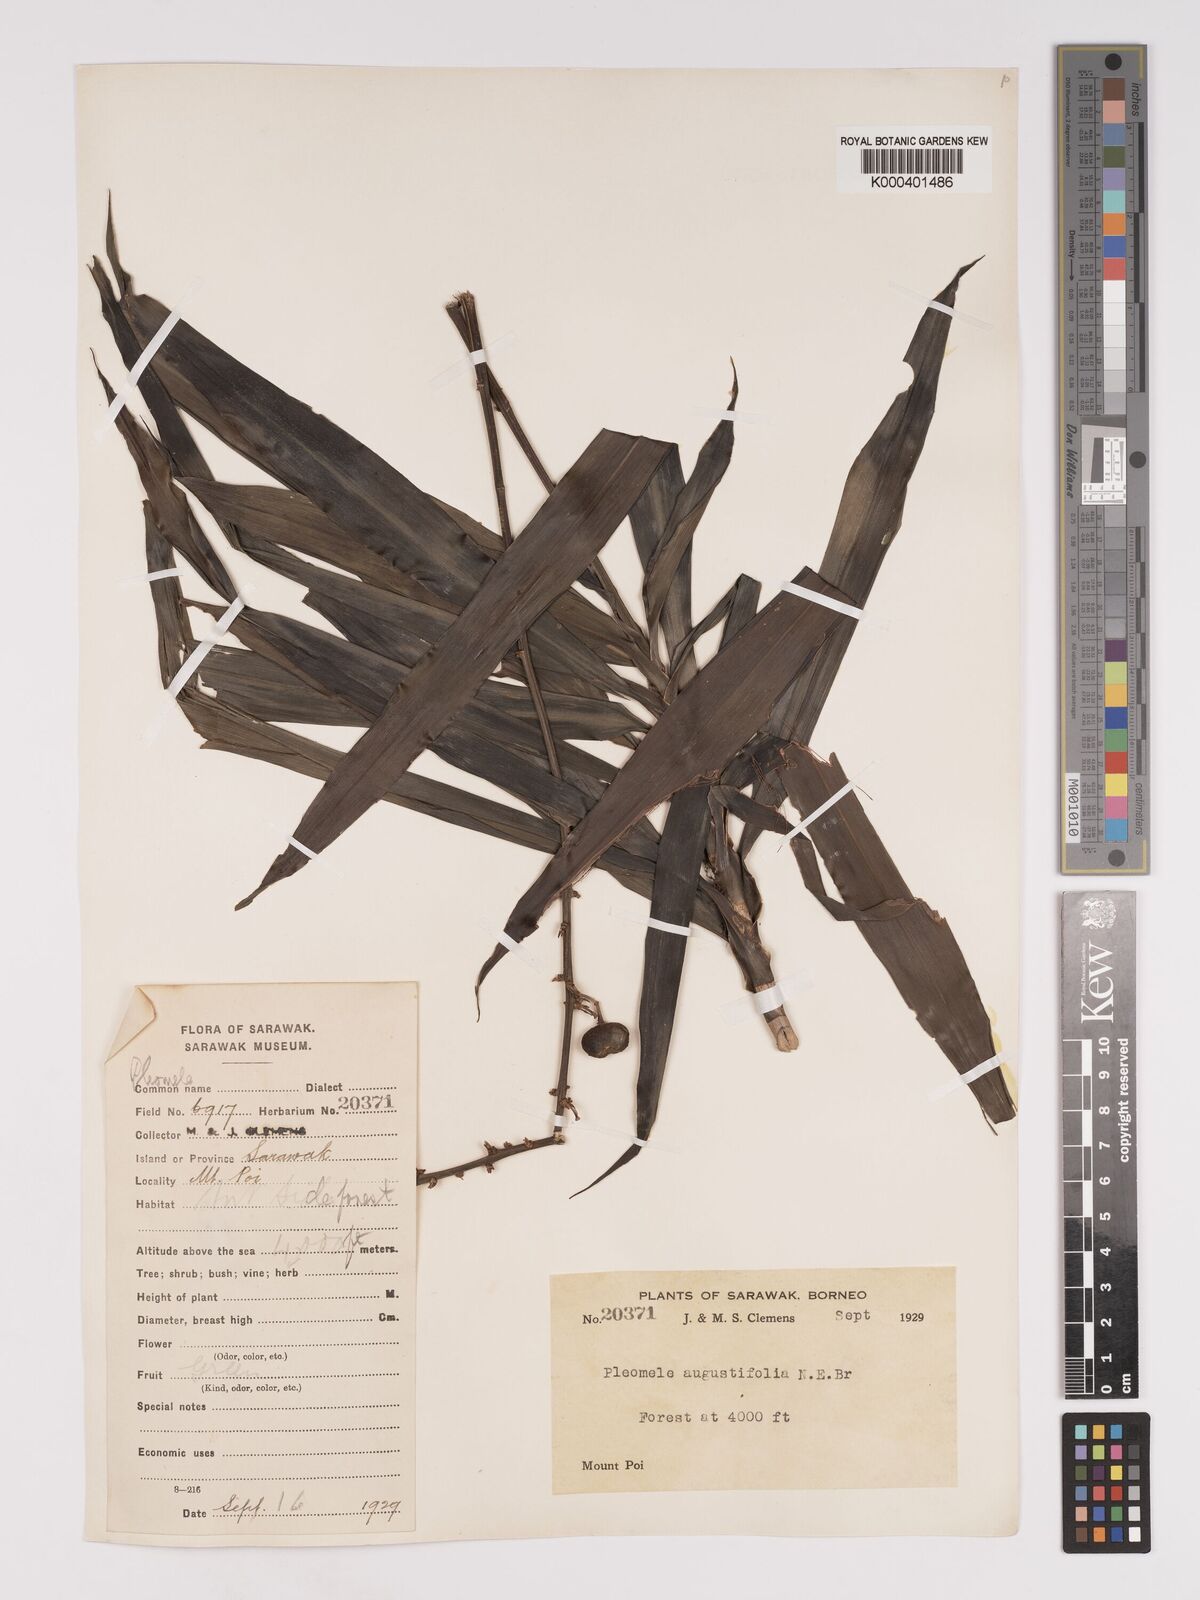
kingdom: Plantae
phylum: Tracheophyta
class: Liliopsida
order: Asparagales
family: Asparagaceae
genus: Dracaena
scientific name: Dracaena angustifolia
